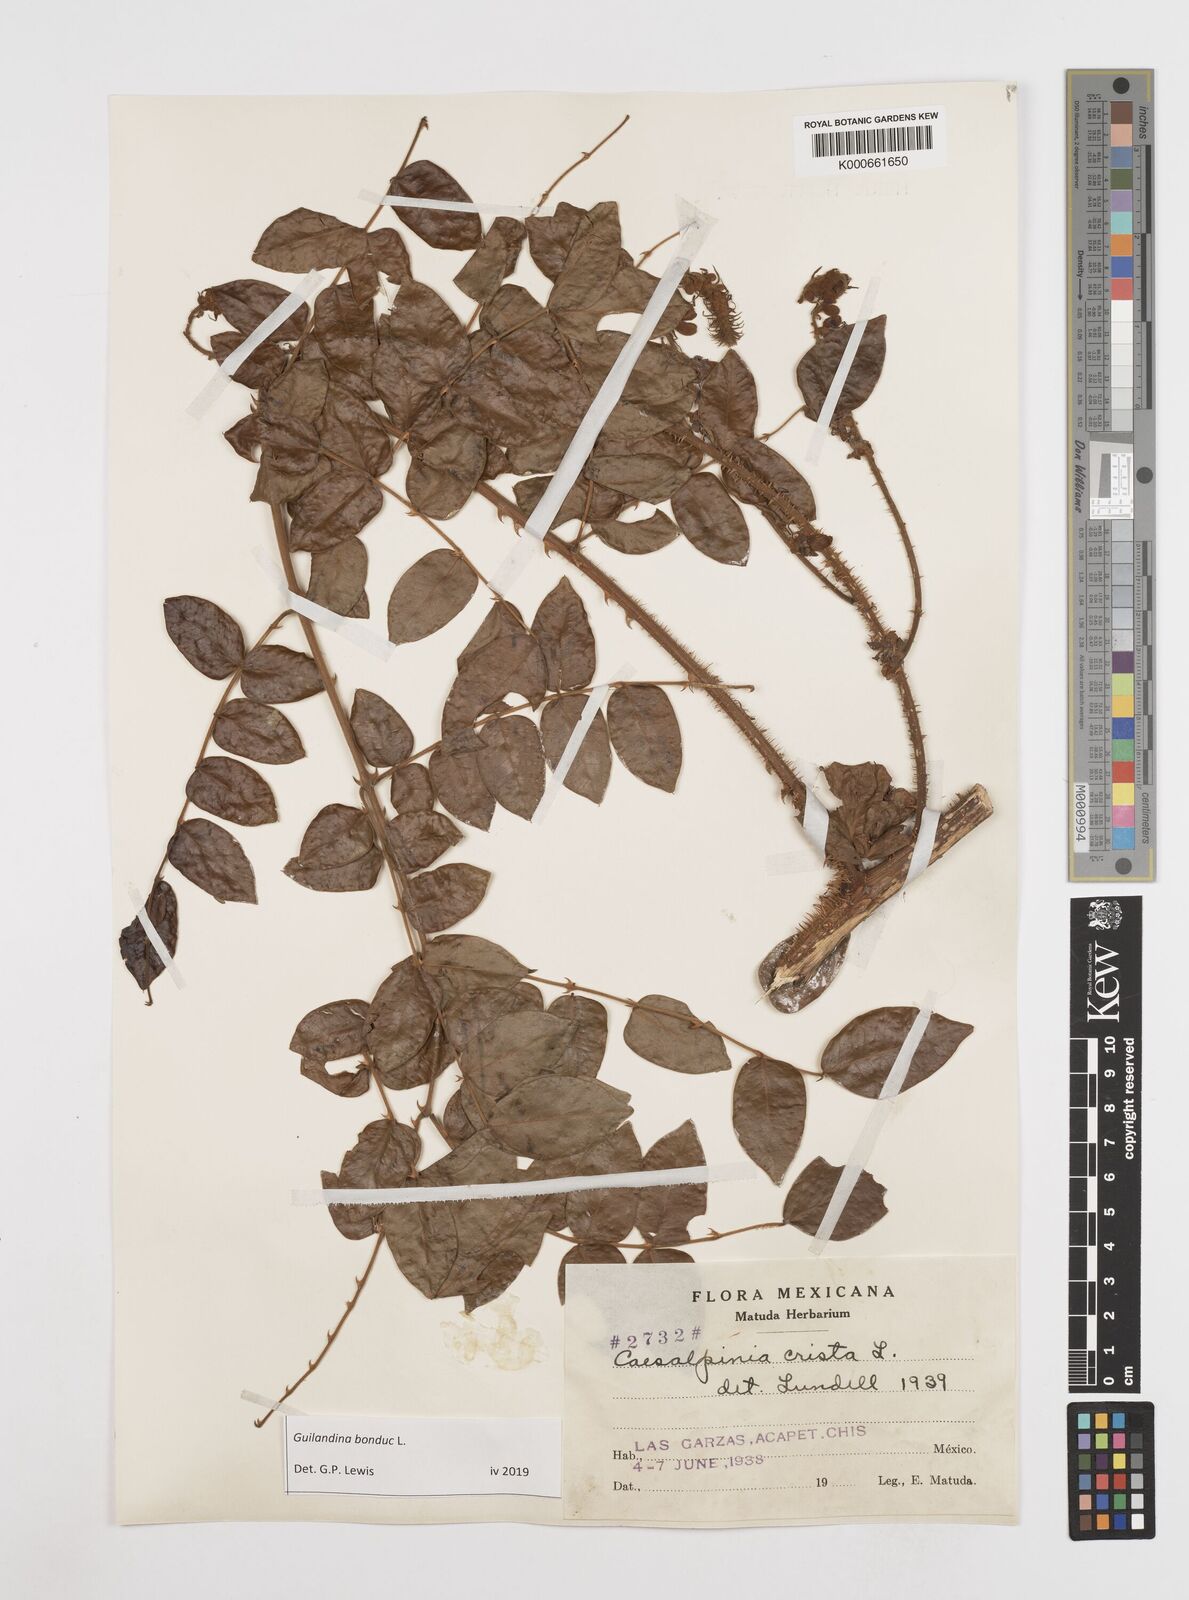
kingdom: Plantae
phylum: Tracheophyta
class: Magnoliopsida
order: Fabales
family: Fabaceae
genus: Guilandina
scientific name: Guilandina bonduc
